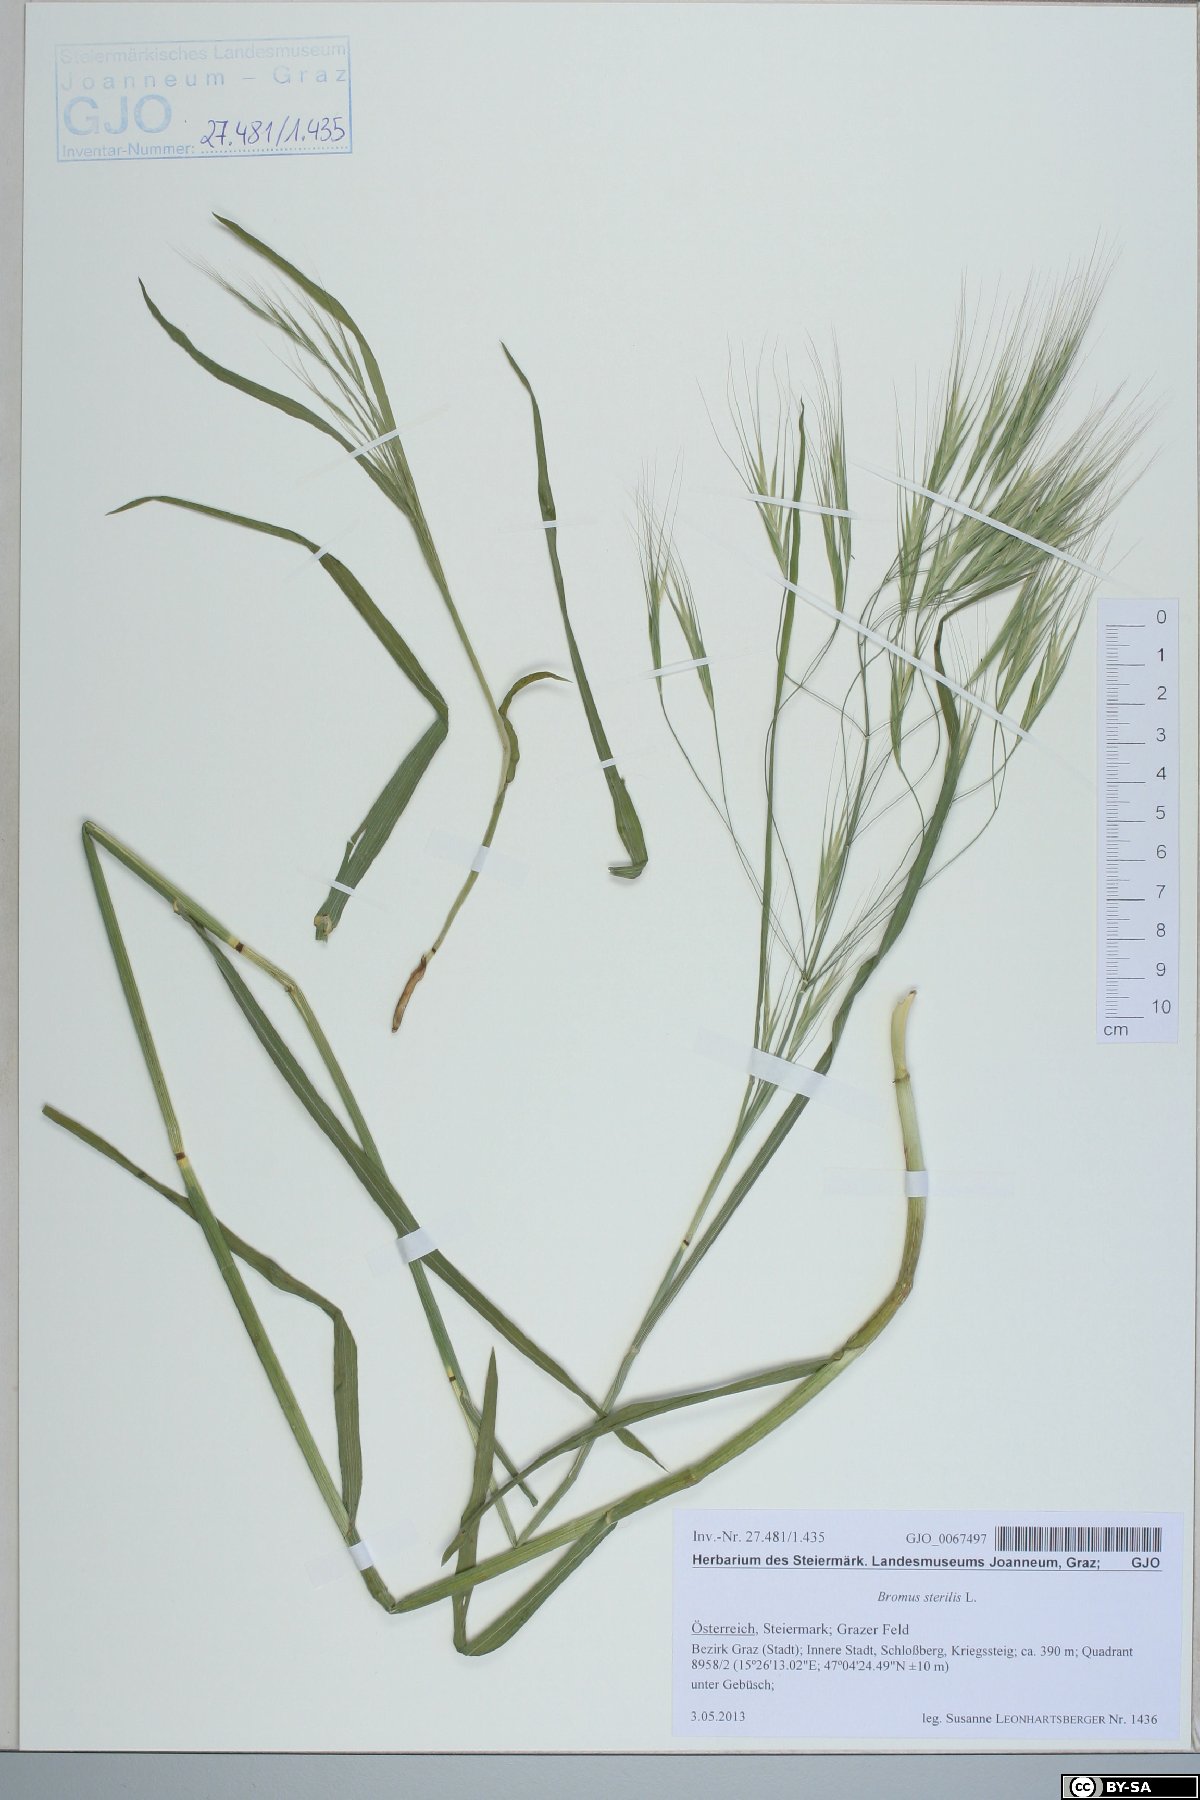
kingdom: Plantae
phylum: Tracheophyta
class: Liliopsida
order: Poales
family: Poaceae
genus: Bromus
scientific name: Bromus sterilis
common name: Poverty brome
